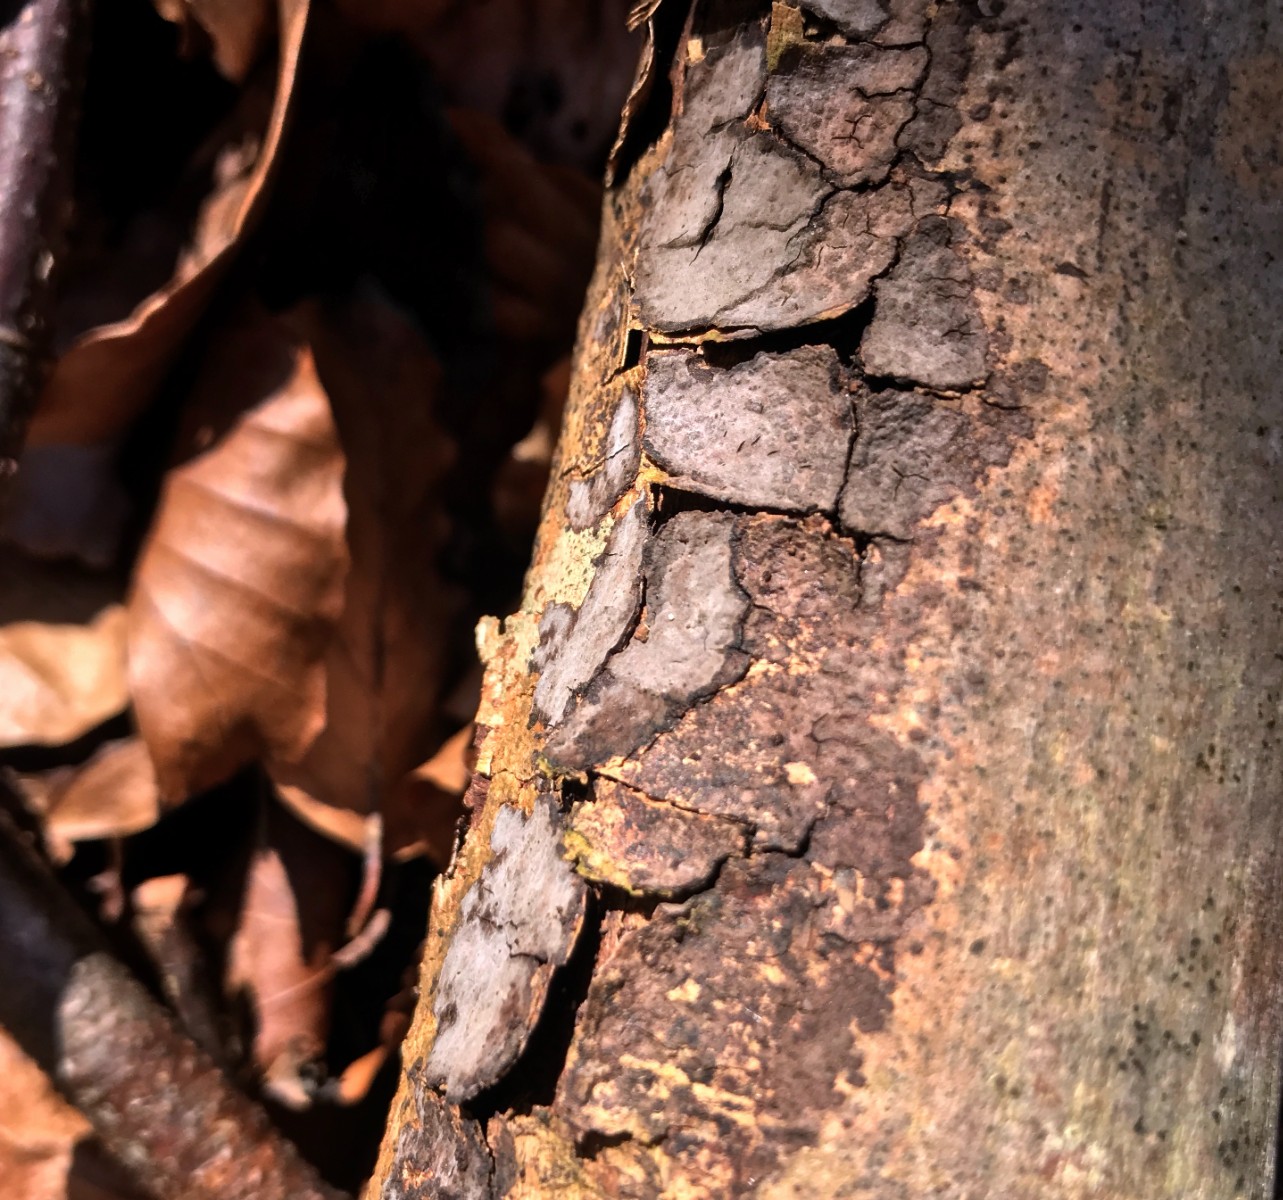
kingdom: Fungi
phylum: Basidiomycota
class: Agaricomycetes
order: Russulales
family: Peniophoraceae
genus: Peniophora
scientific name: Peniophora quercina
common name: ege-voksskind
